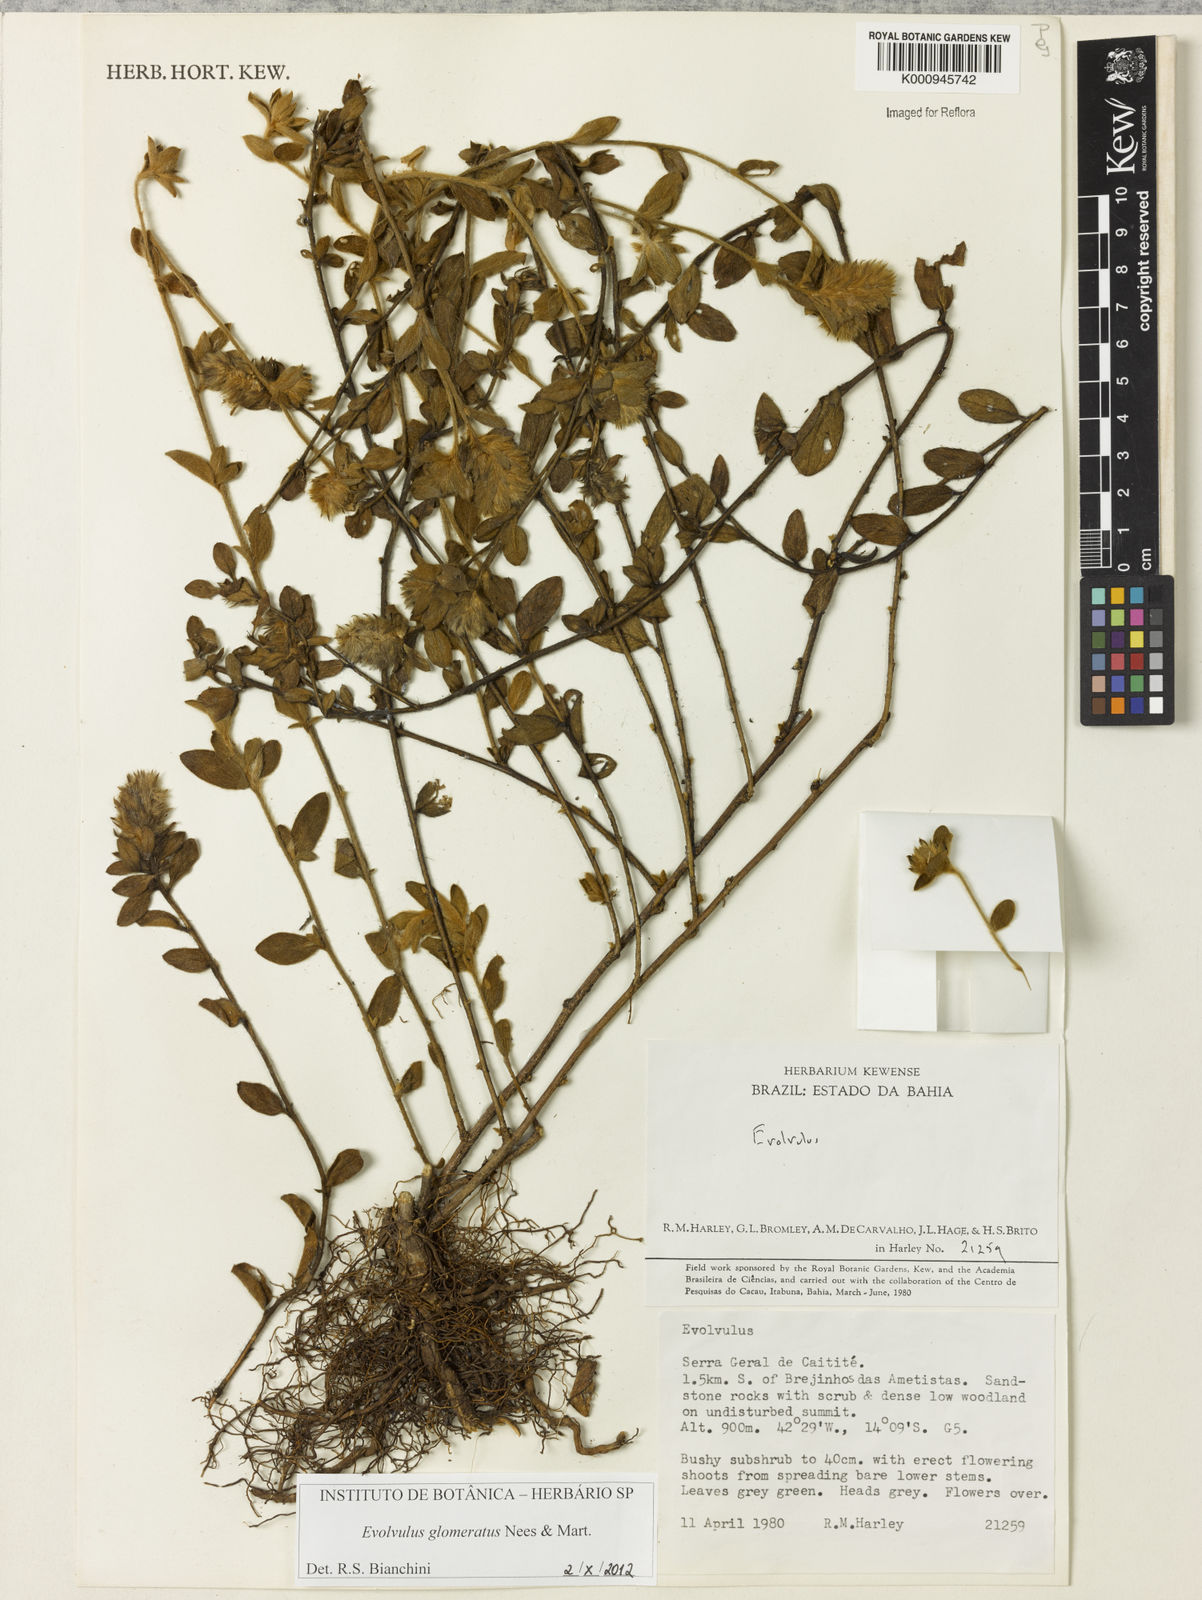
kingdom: Plantae
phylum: Tracheophyta
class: Magnoliopsida
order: Solanales
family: Convolvulaceae
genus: Evolvulus
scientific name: Evolvulus glomeratus
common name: Brazilian dwarf morning-glory
